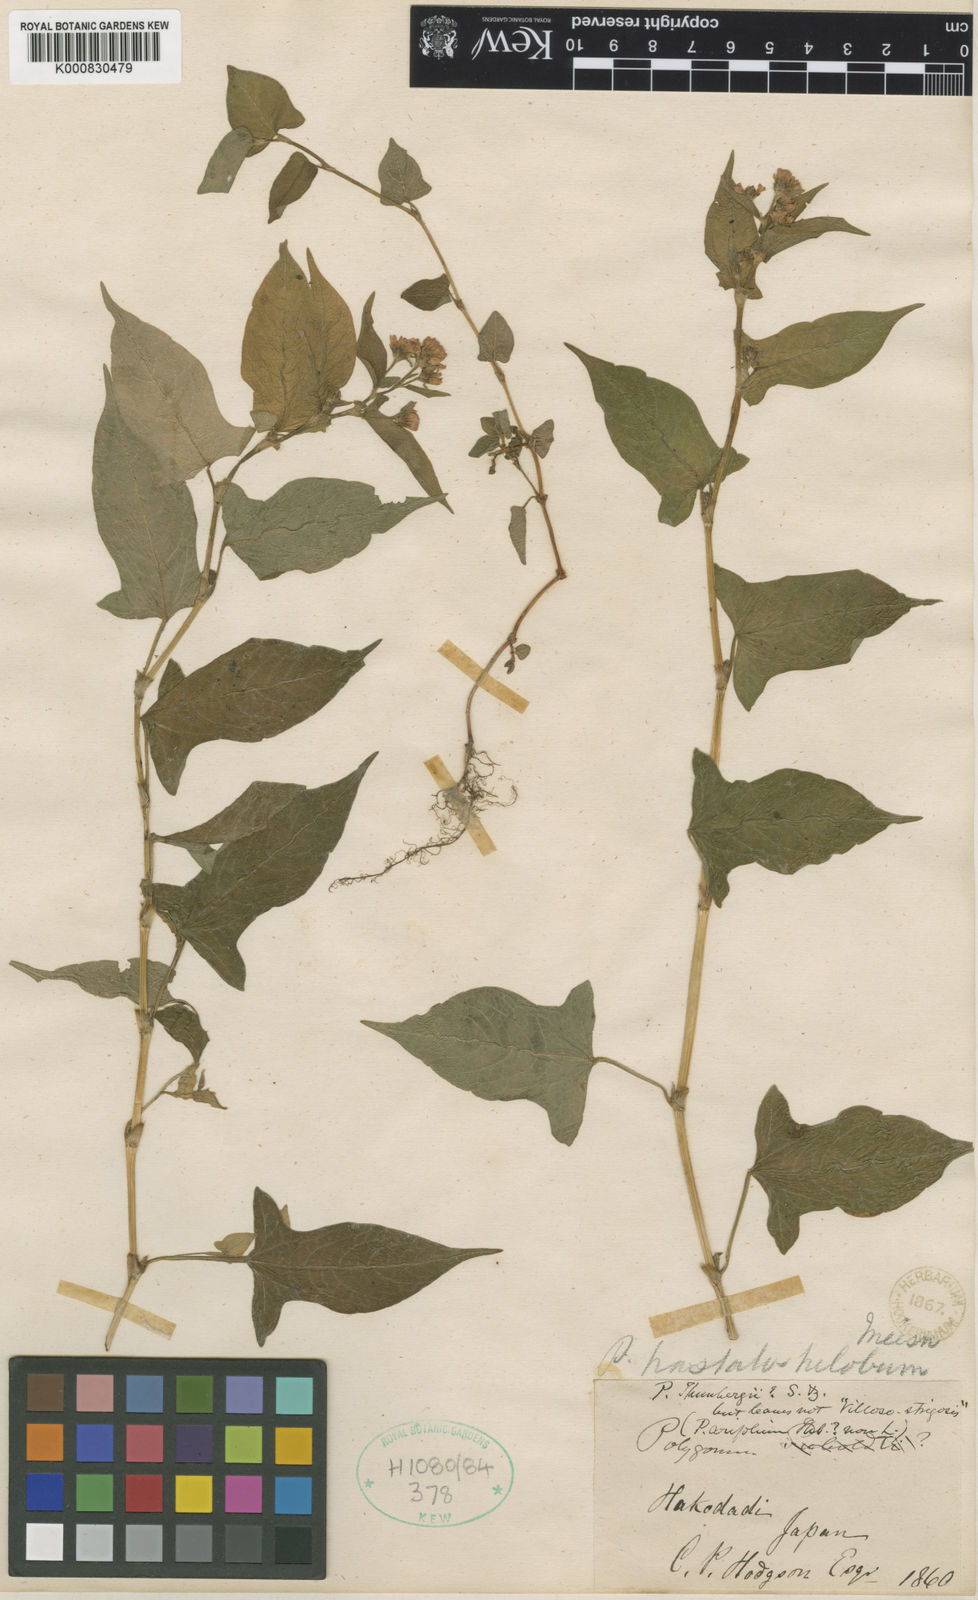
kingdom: Plantae
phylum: Tracheophyta
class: Magnoliopsida
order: Caryophyllales
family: Polygonaceae
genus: Persicaria
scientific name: Persicaria thunbergii
